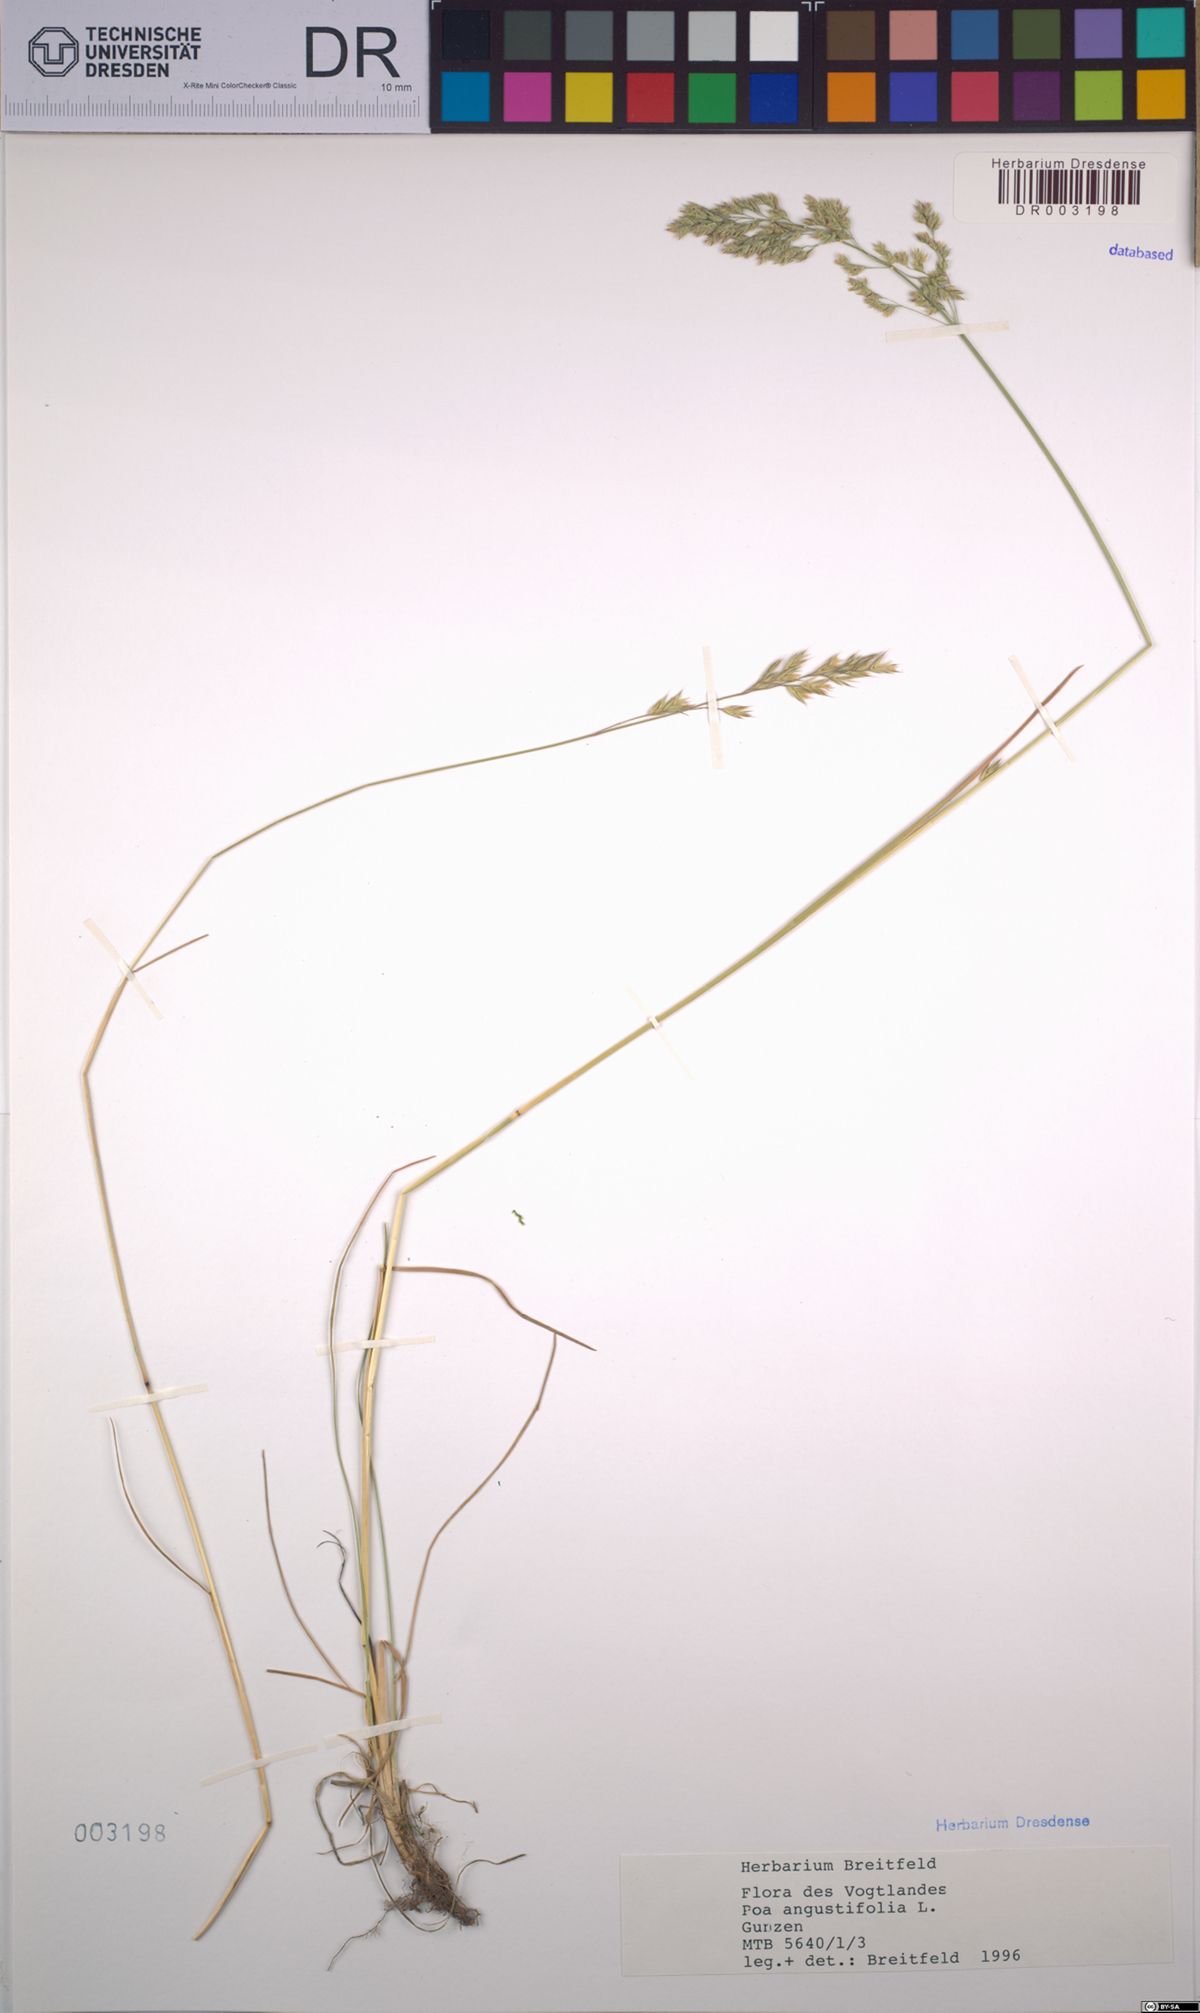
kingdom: Plantae
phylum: Tracheophyta
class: Liliopsida
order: Poales
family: Poaceae
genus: Poa
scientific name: Poa angustifolia
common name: Narrow-leaved meadow-grass
